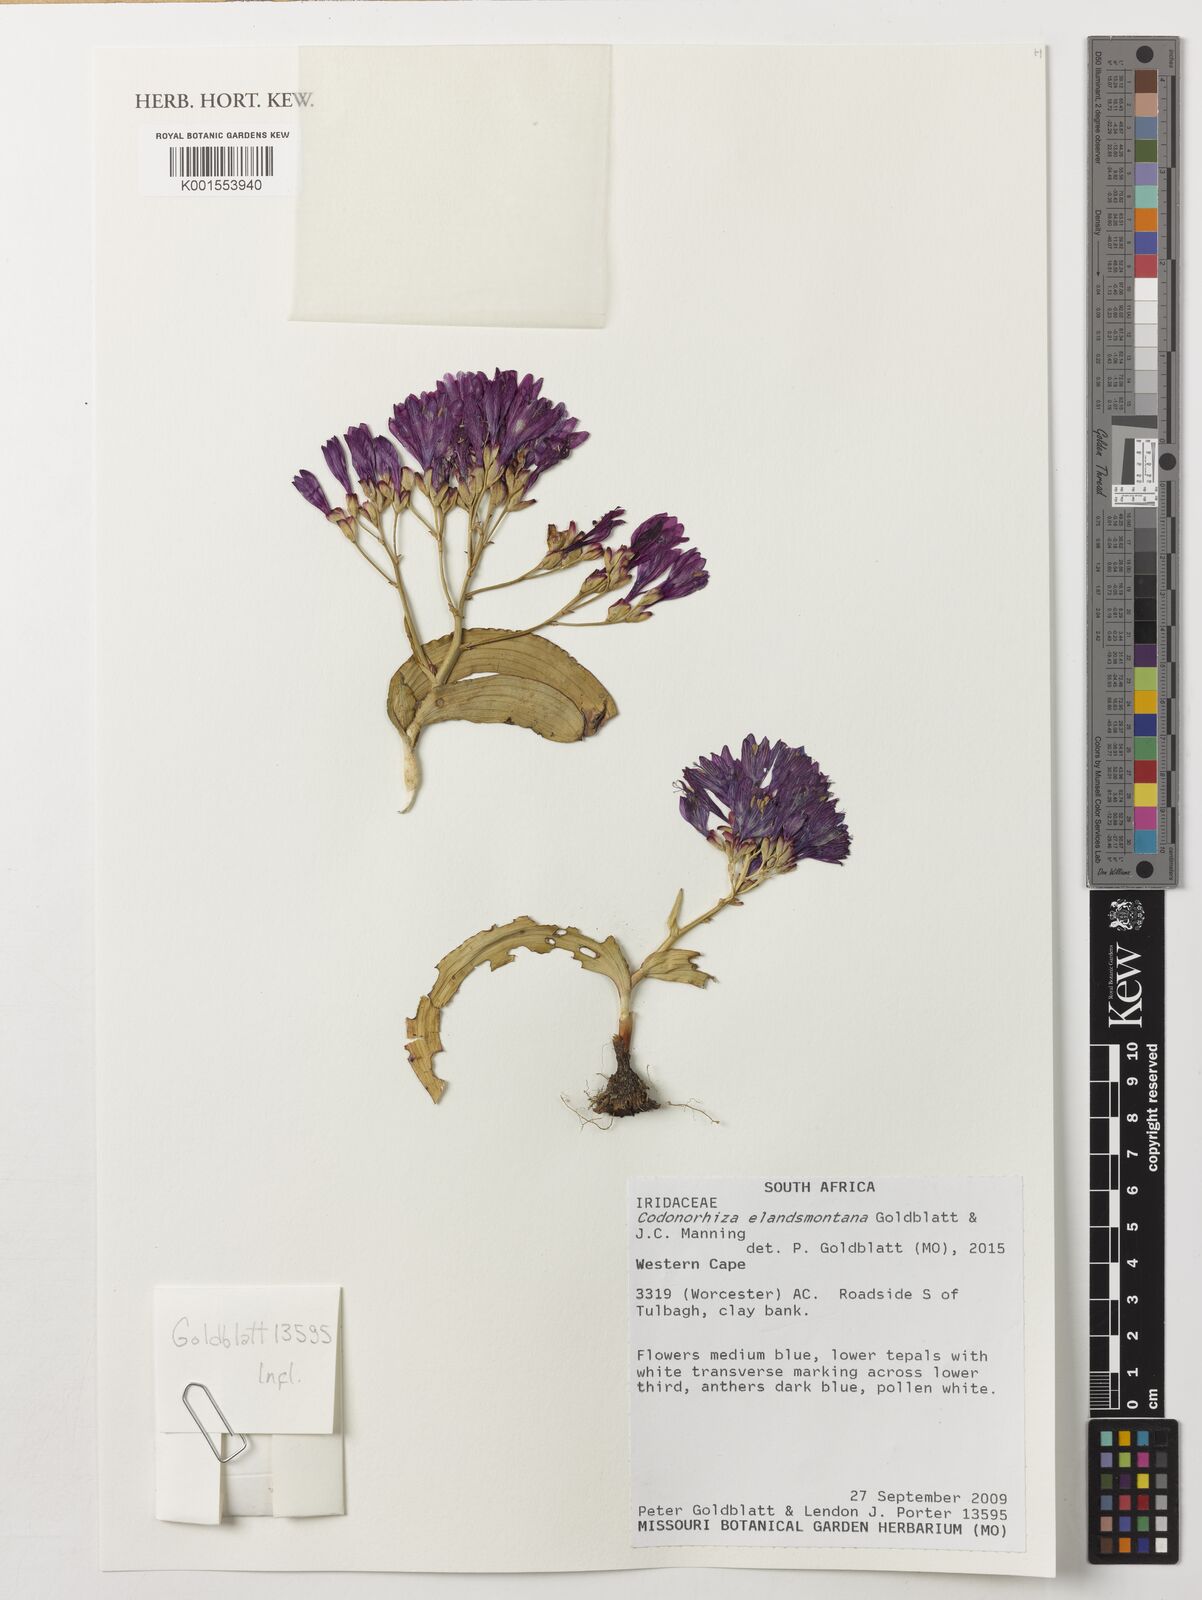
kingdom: Plantae
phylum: Tracheophyta
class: Liliopsida
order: Asparagales
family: Iridaceae
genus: Codonorhiza
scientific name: Codonorhiza elandsmontana
